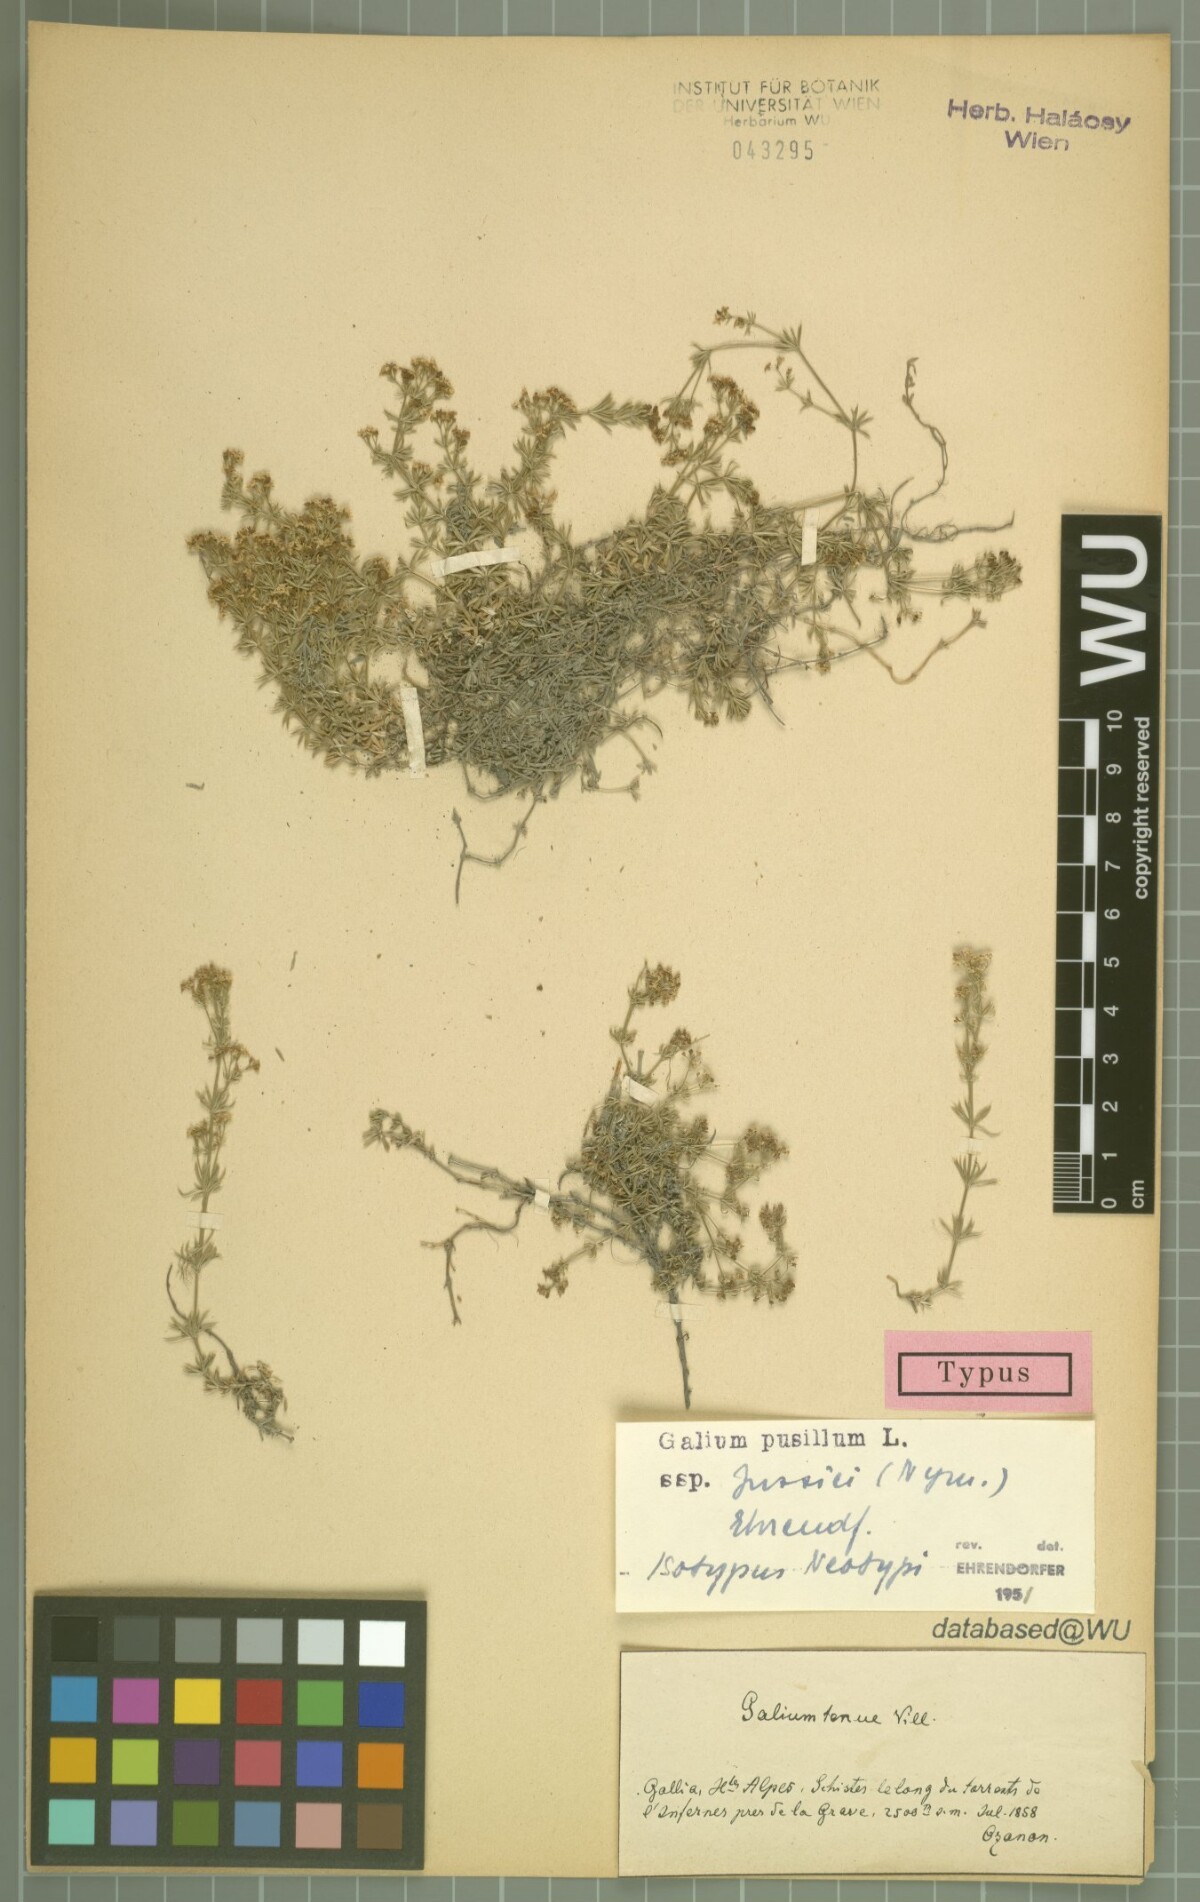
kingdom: Plantae
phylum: Tracheophyta
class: Magnoliopsida
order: Gentianales
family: Rubiaceae
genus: Galium
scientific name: Galium pusillum
